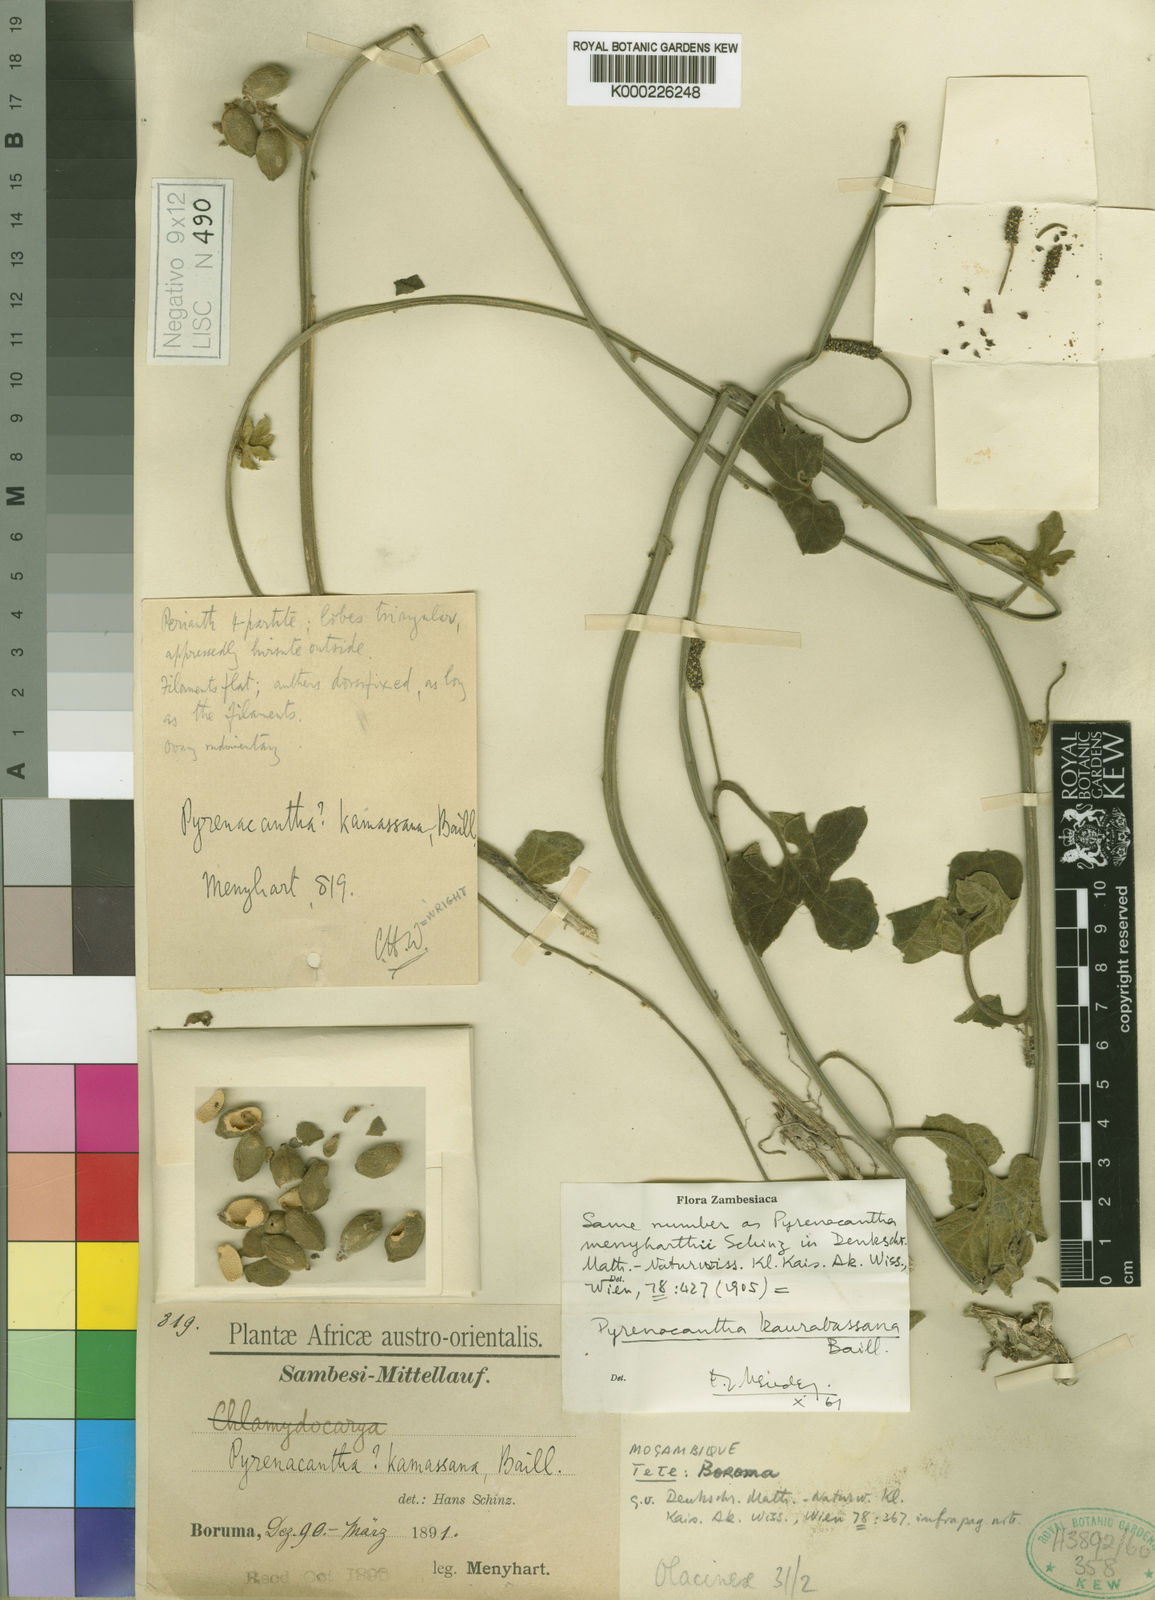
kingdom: Plantae
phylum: Tracheophyta
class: Magnoliopsida
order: Icacinales
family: Icacinaceae
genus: Pyrenacantha
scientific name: Pyrenacantha kaurabassana
